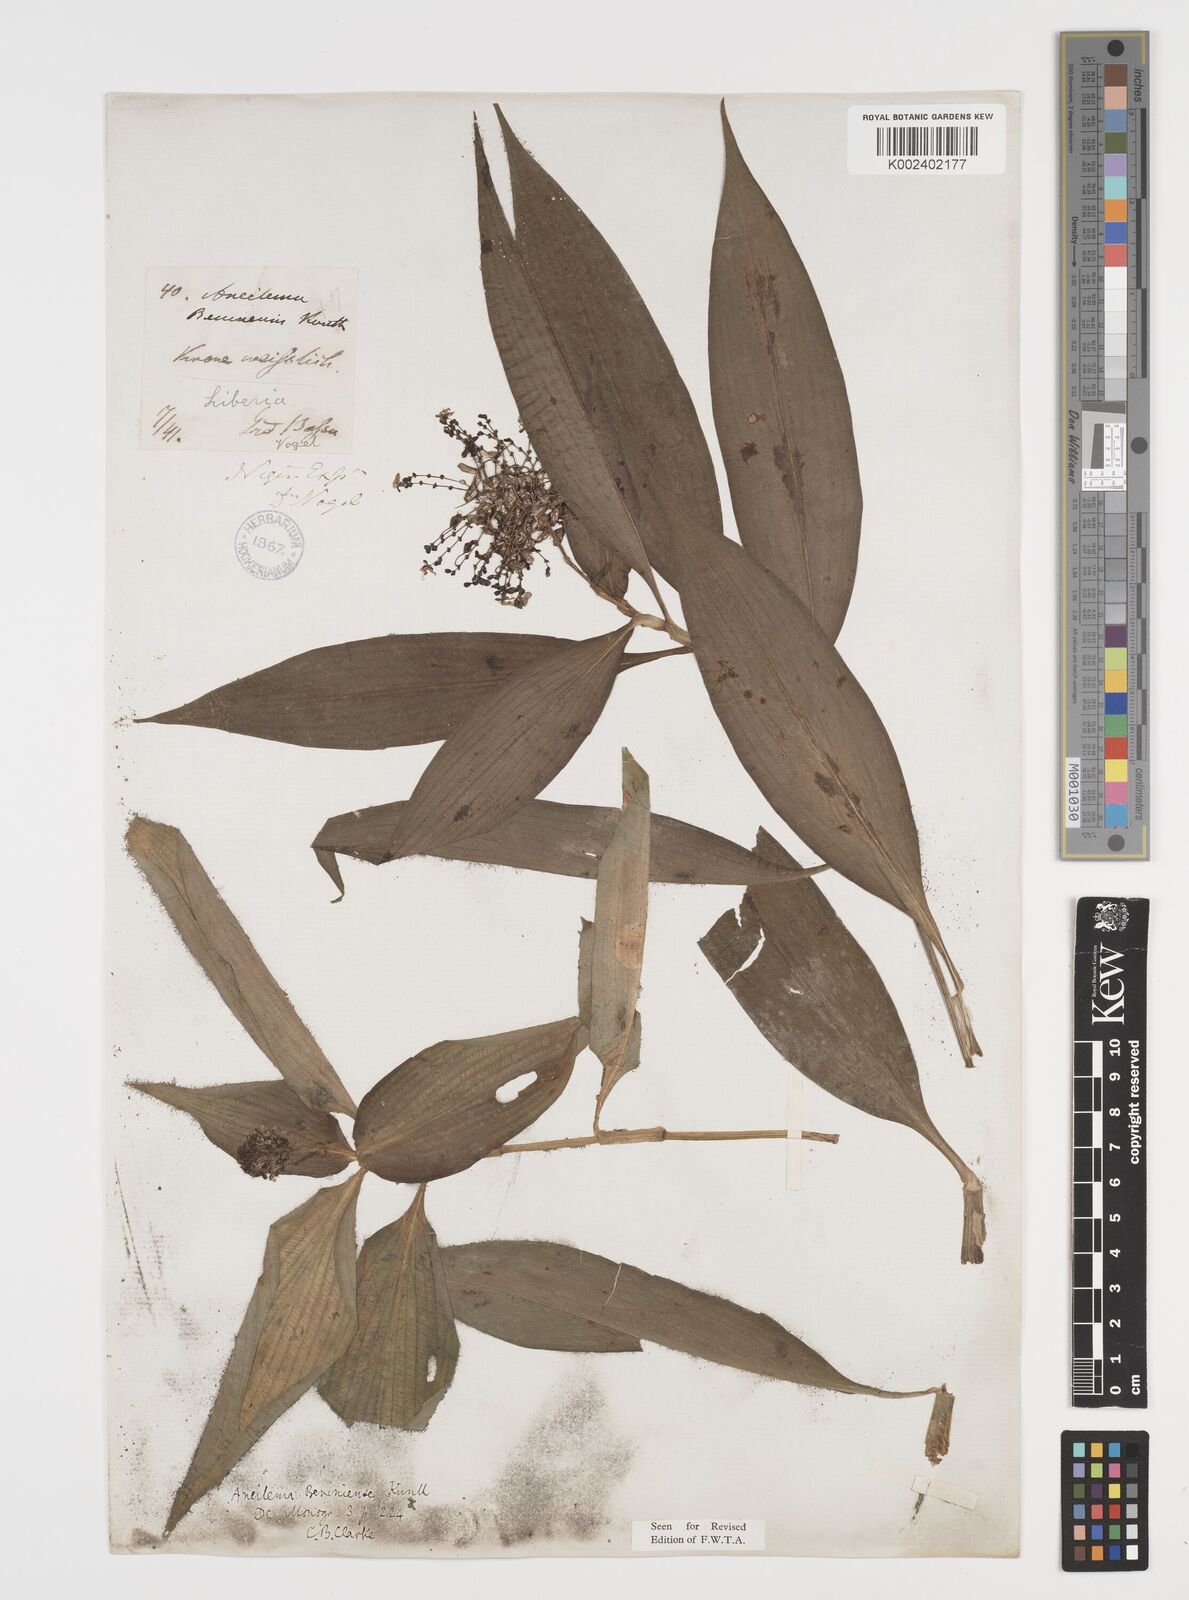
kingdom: Plantae
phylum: Tracheophyta
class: Liliopsida
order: Commelinales
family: Commelinaceae
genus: Aneilema
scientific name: Aneilema beniniense
